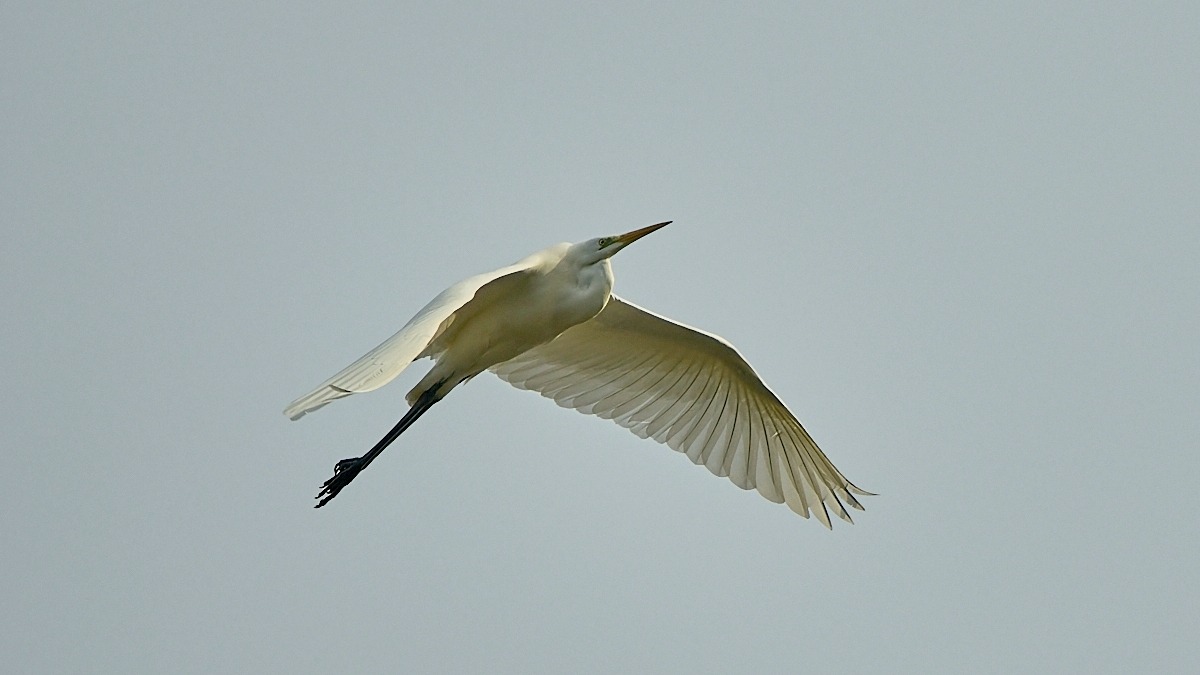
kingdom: Animalia
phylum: Chordata
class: Aves
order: Pelecaniformes
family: Ardeidae
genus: Ardea
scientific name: Ardea alba
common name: Sølvhejre
